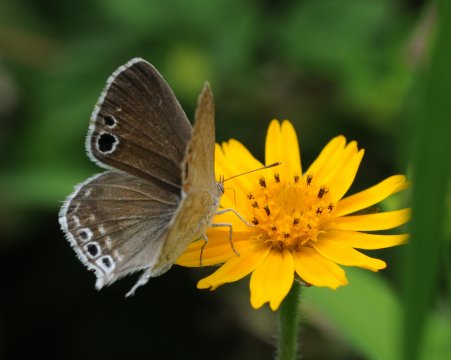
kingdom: Animalia
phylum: Arthropoda
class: Insecta
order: Lepidoptera
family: Lycaenidae
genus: Leptomyrina
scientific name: Leptomyrina gorgias
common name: Common Black-eye
